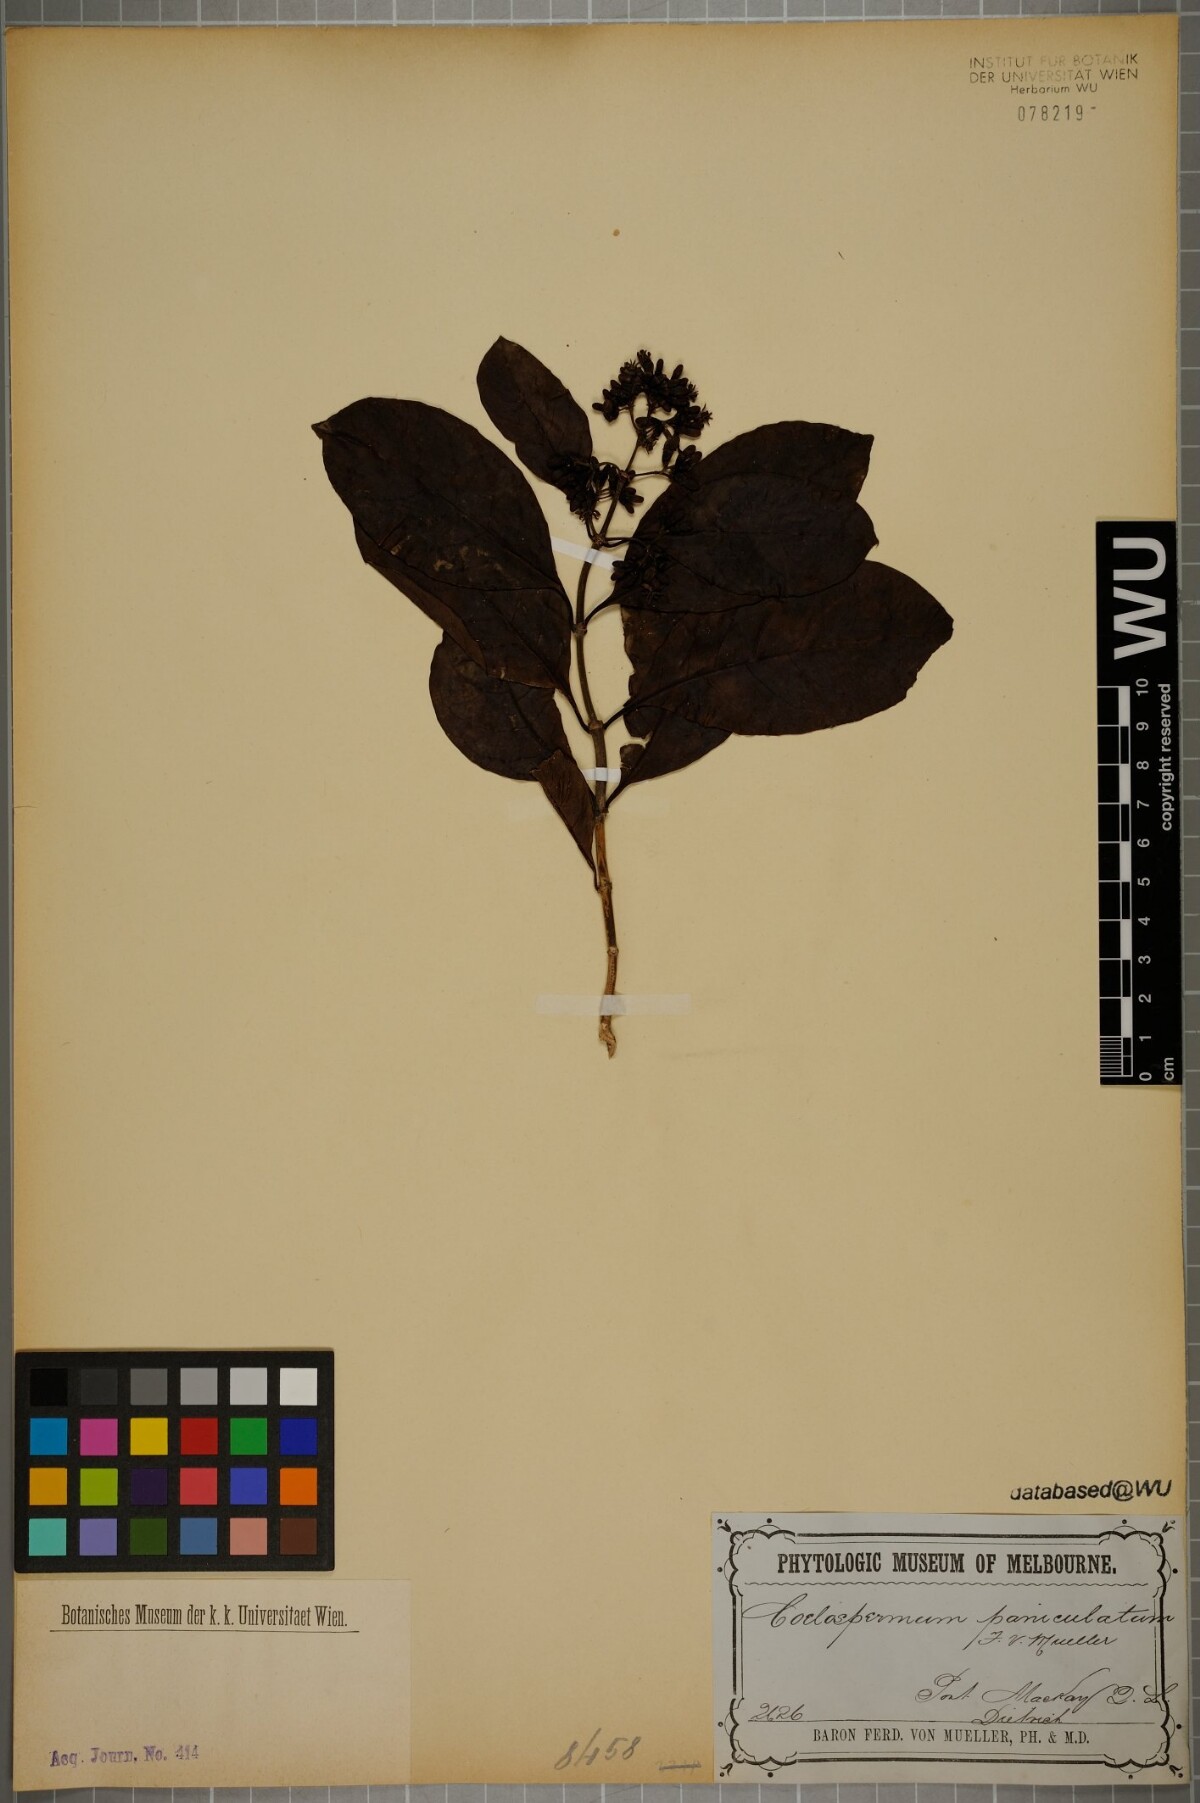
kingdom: Plantae
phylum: Tracheophyta
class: Magnoliopsida
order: Gentianales
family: Rubiaceae
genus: Coelospermum
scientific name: Coelospermum paniculatum
